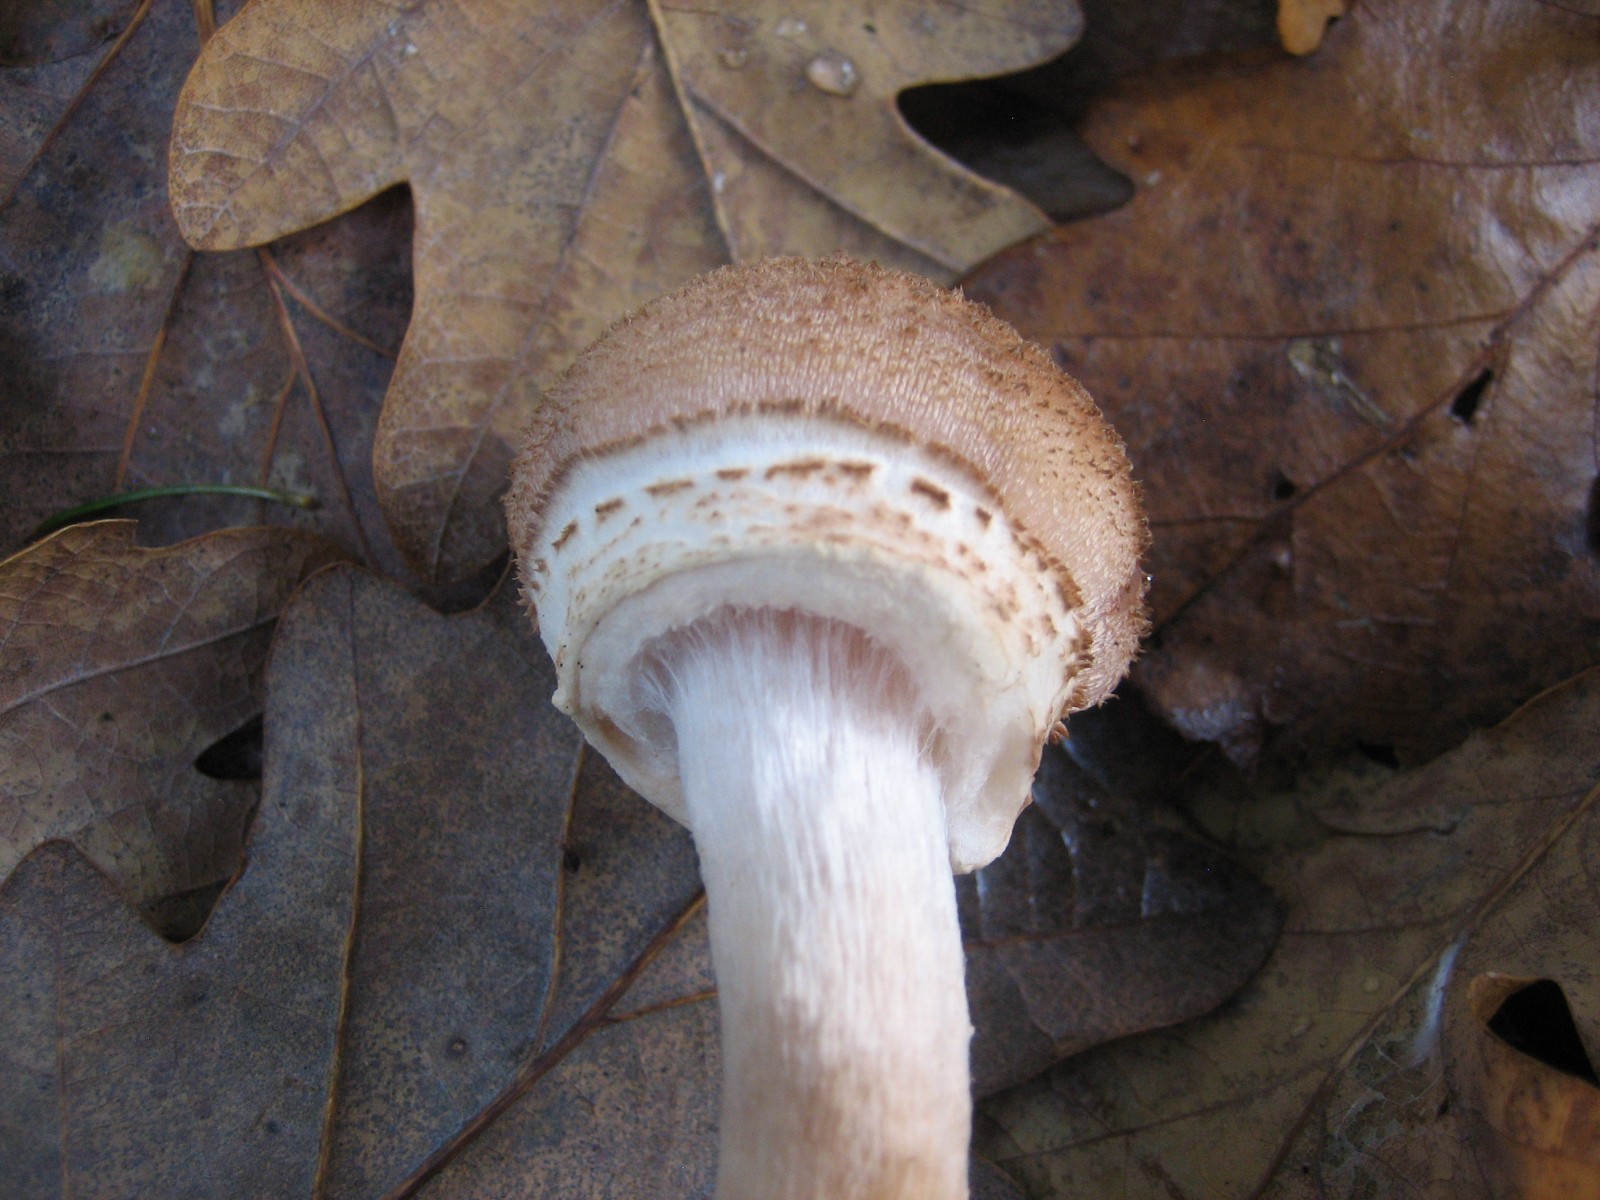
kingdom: Fungi
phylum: Basidiomycota
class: Agaricomycetes
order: Agaricales
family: Physalacriaceae
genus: Armillaria
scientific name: Armillaria mellea
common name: ægte honningsvamp
